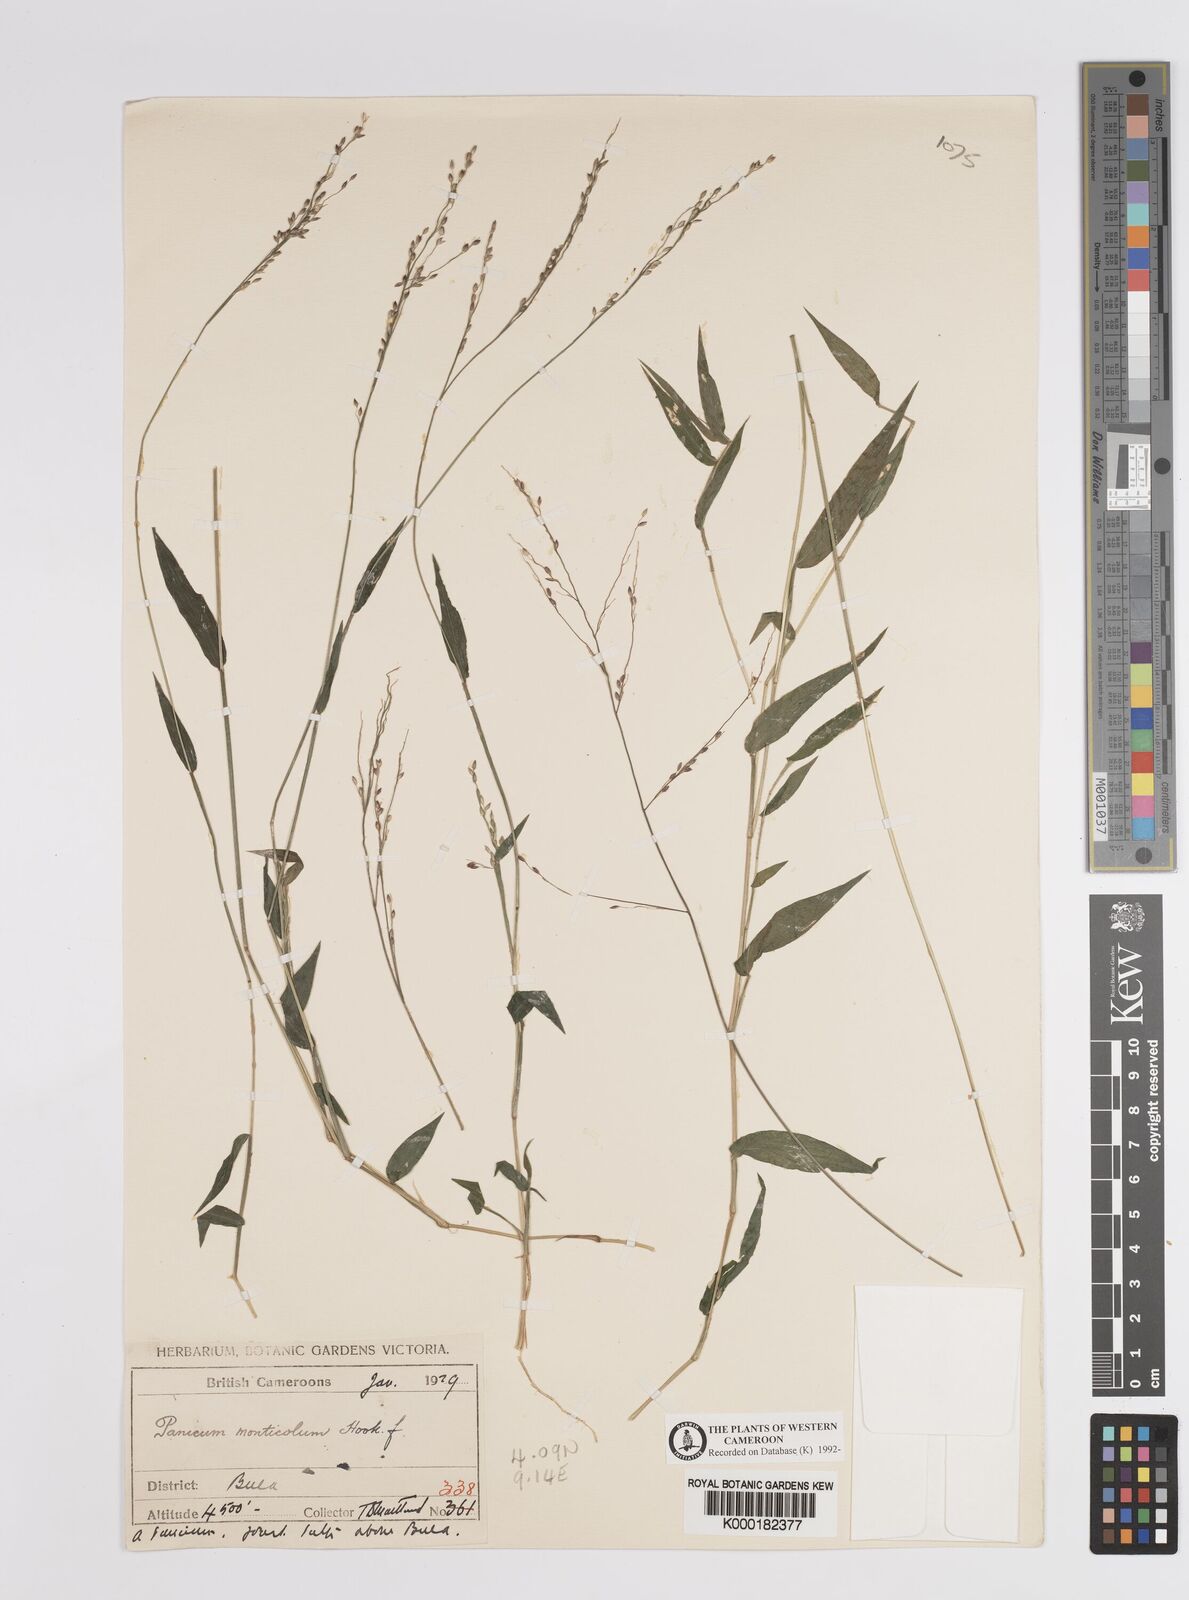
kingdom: Plantae
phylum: Tracheophyta
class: Liliopsida
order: Poales
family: Poaceae
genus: Panicum
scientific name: Panicum monticola
